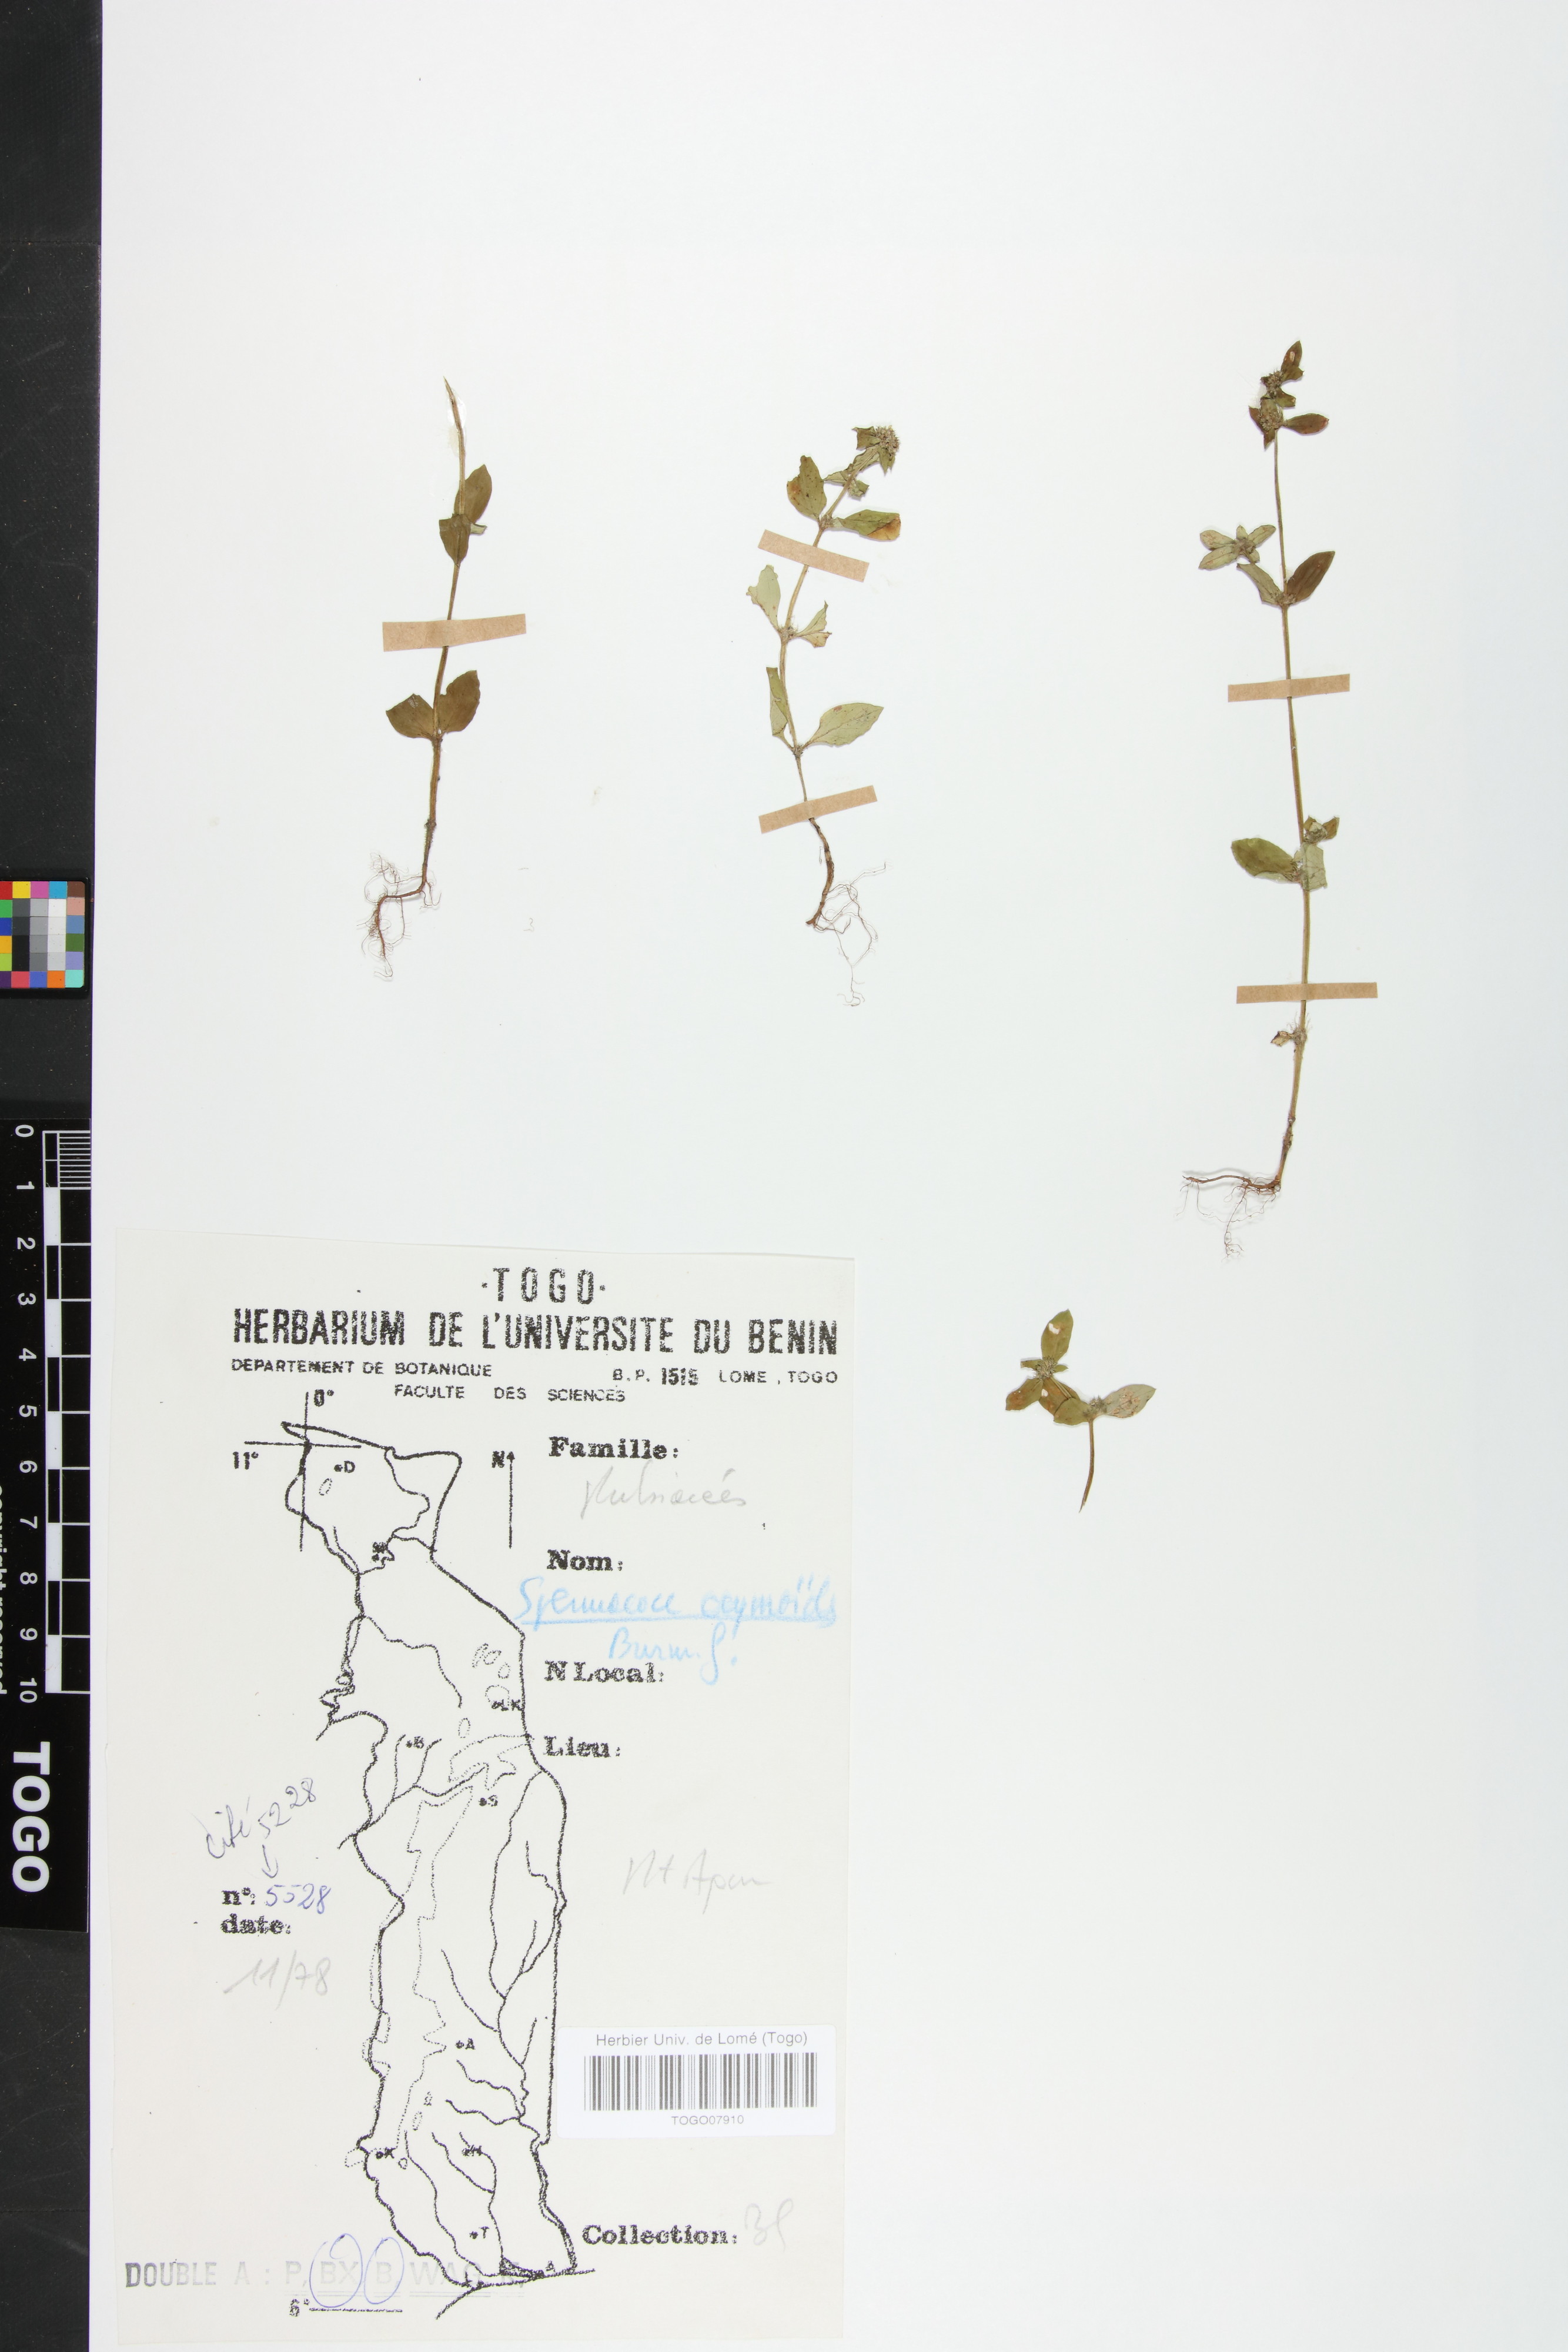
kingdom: Plantae
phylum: Tracheophyta
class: Magnoliopsida
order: Gentianales
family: Rubiaceae
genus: Spermacoce
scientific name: Spermacoce ocymoides
